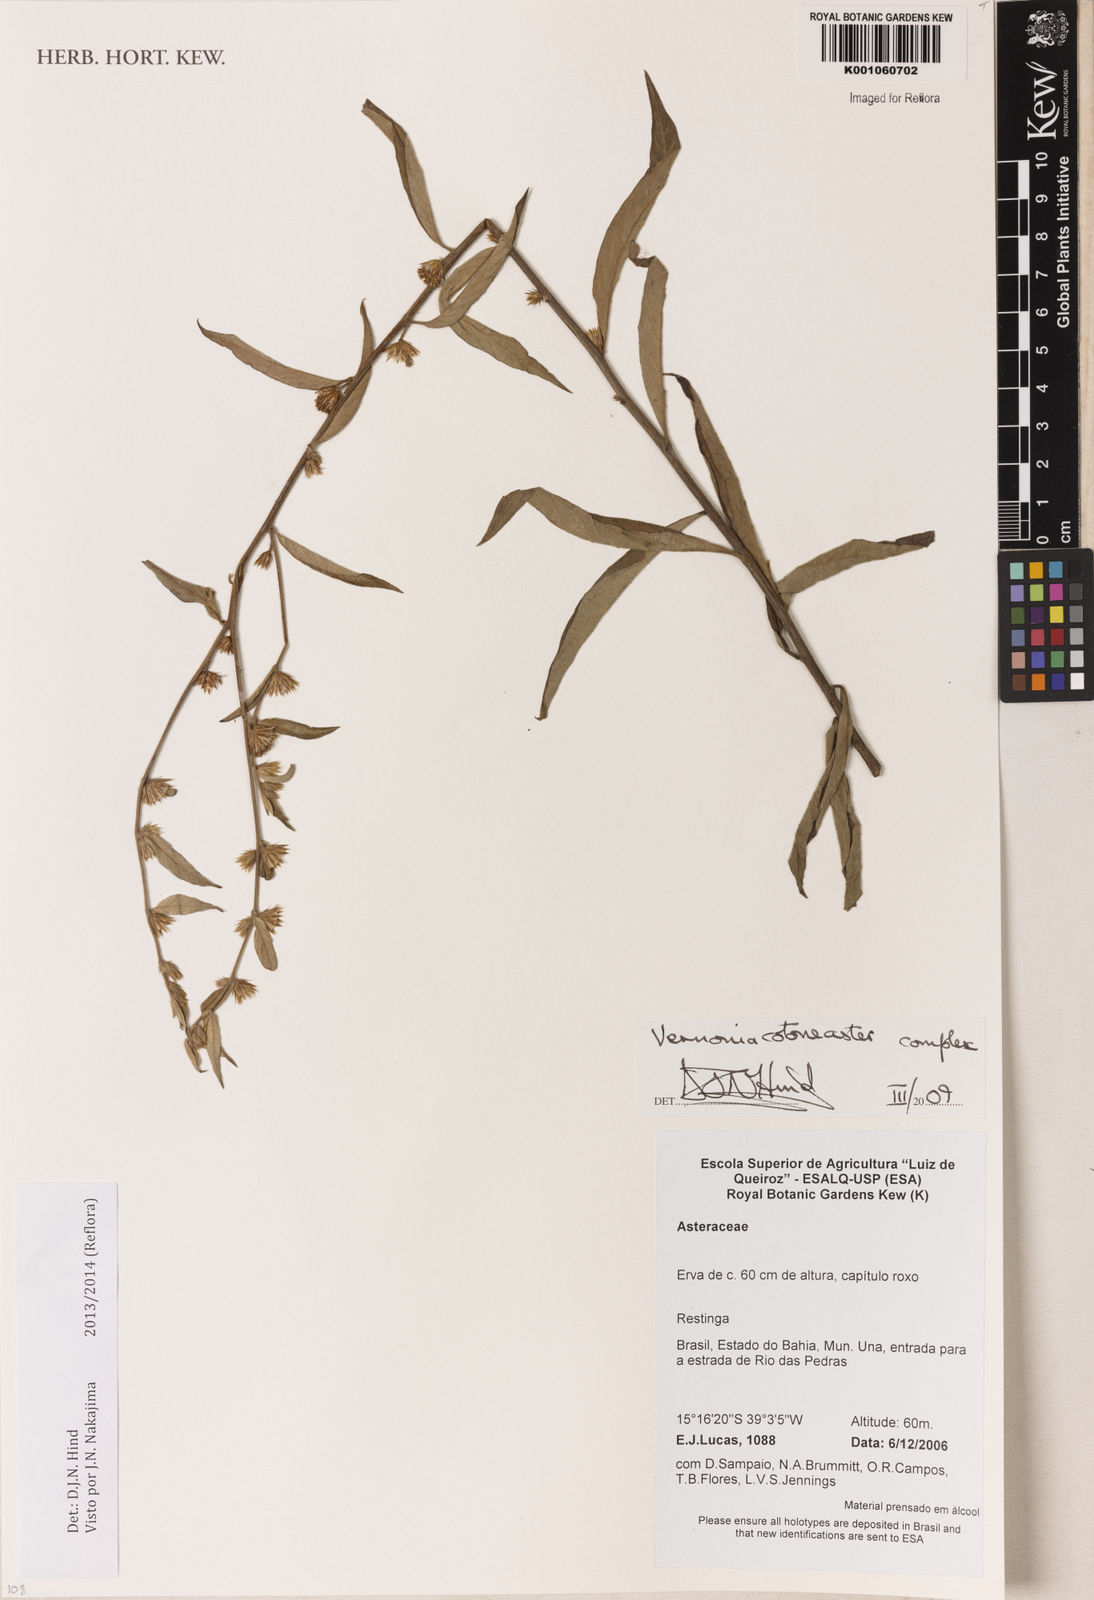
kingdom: Plantae
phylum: Tracheophyta
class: Magnoliopsida
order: Asterales
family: Asteraceae
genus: Lepidaploa
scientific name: Lepidaploa cotoneaster
